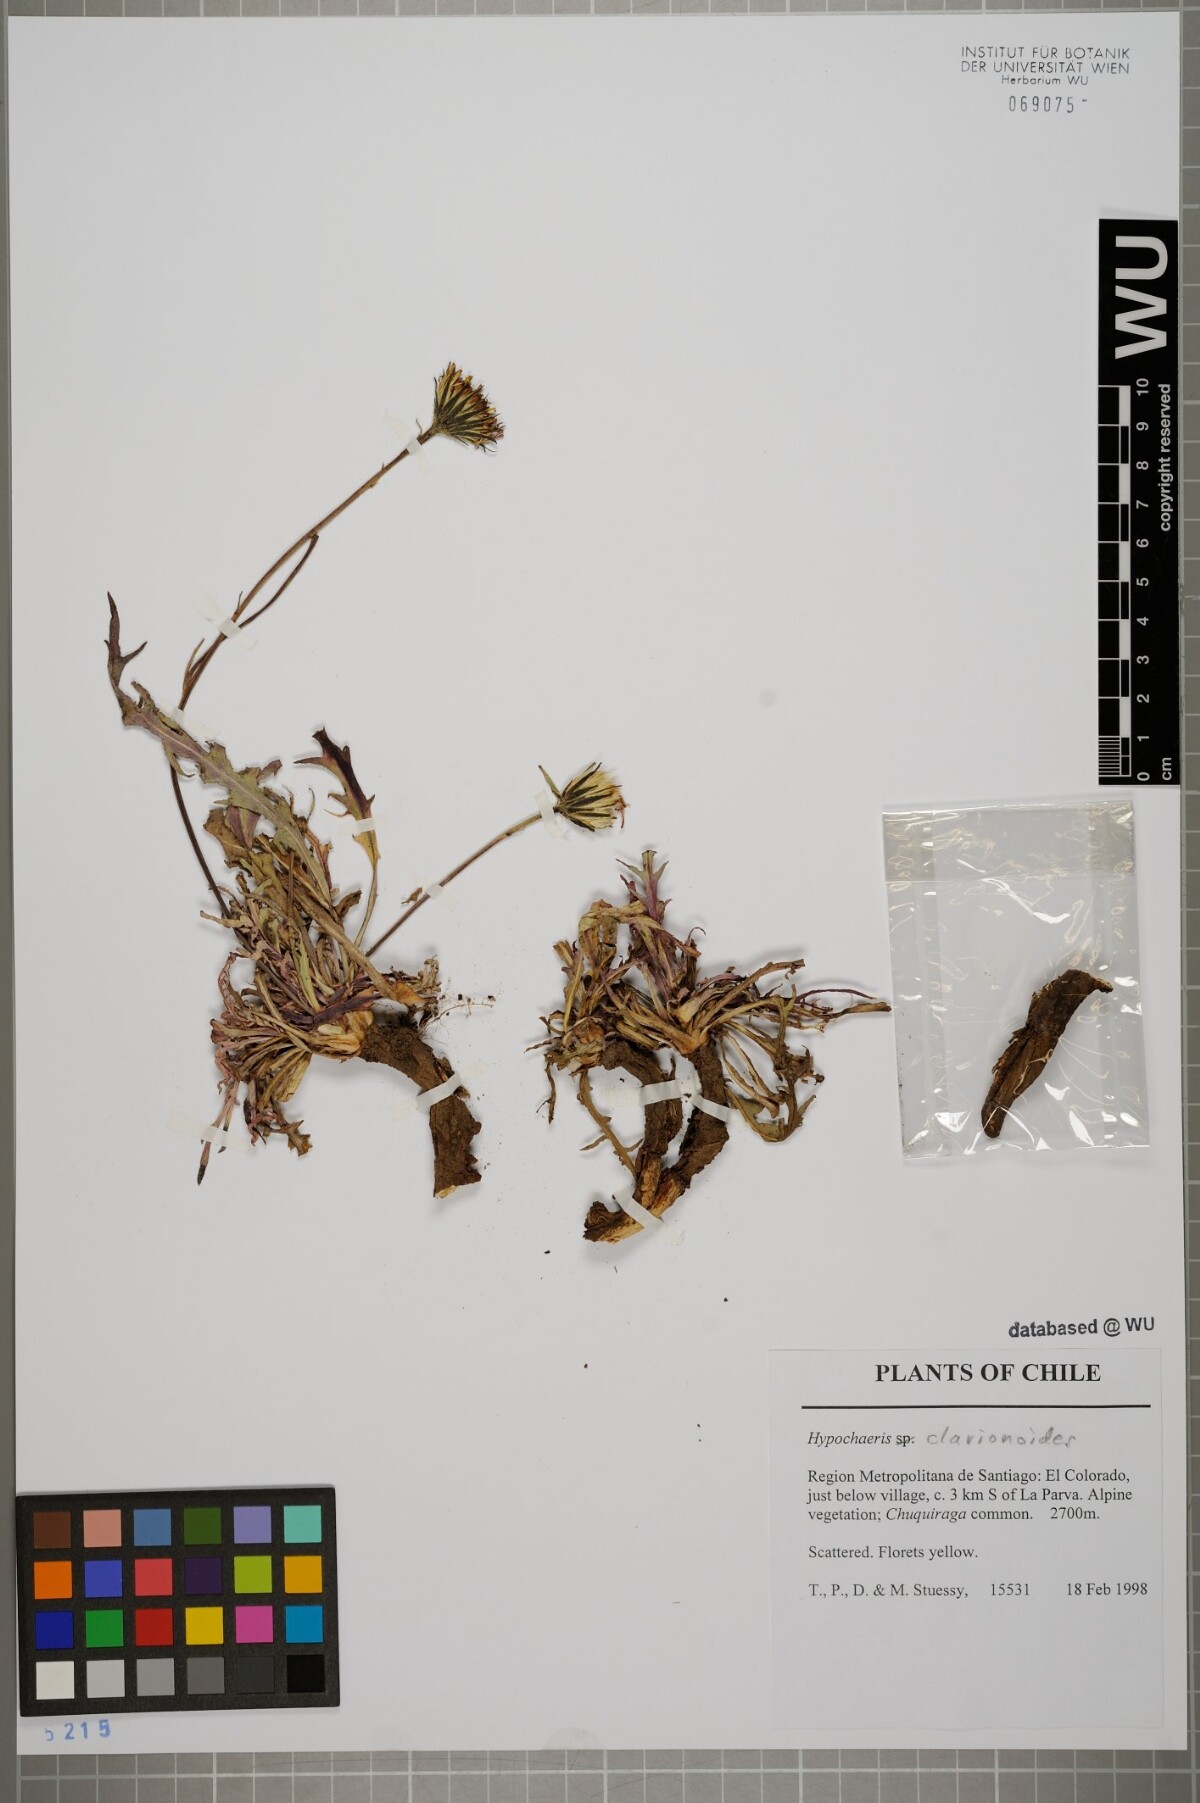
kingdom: Plantae
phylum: Tracheophyta
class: Magnoliopsida
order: Asterales
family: Asteraceae
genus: Hypochaeris
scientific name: Hypochaeris clarionoides
